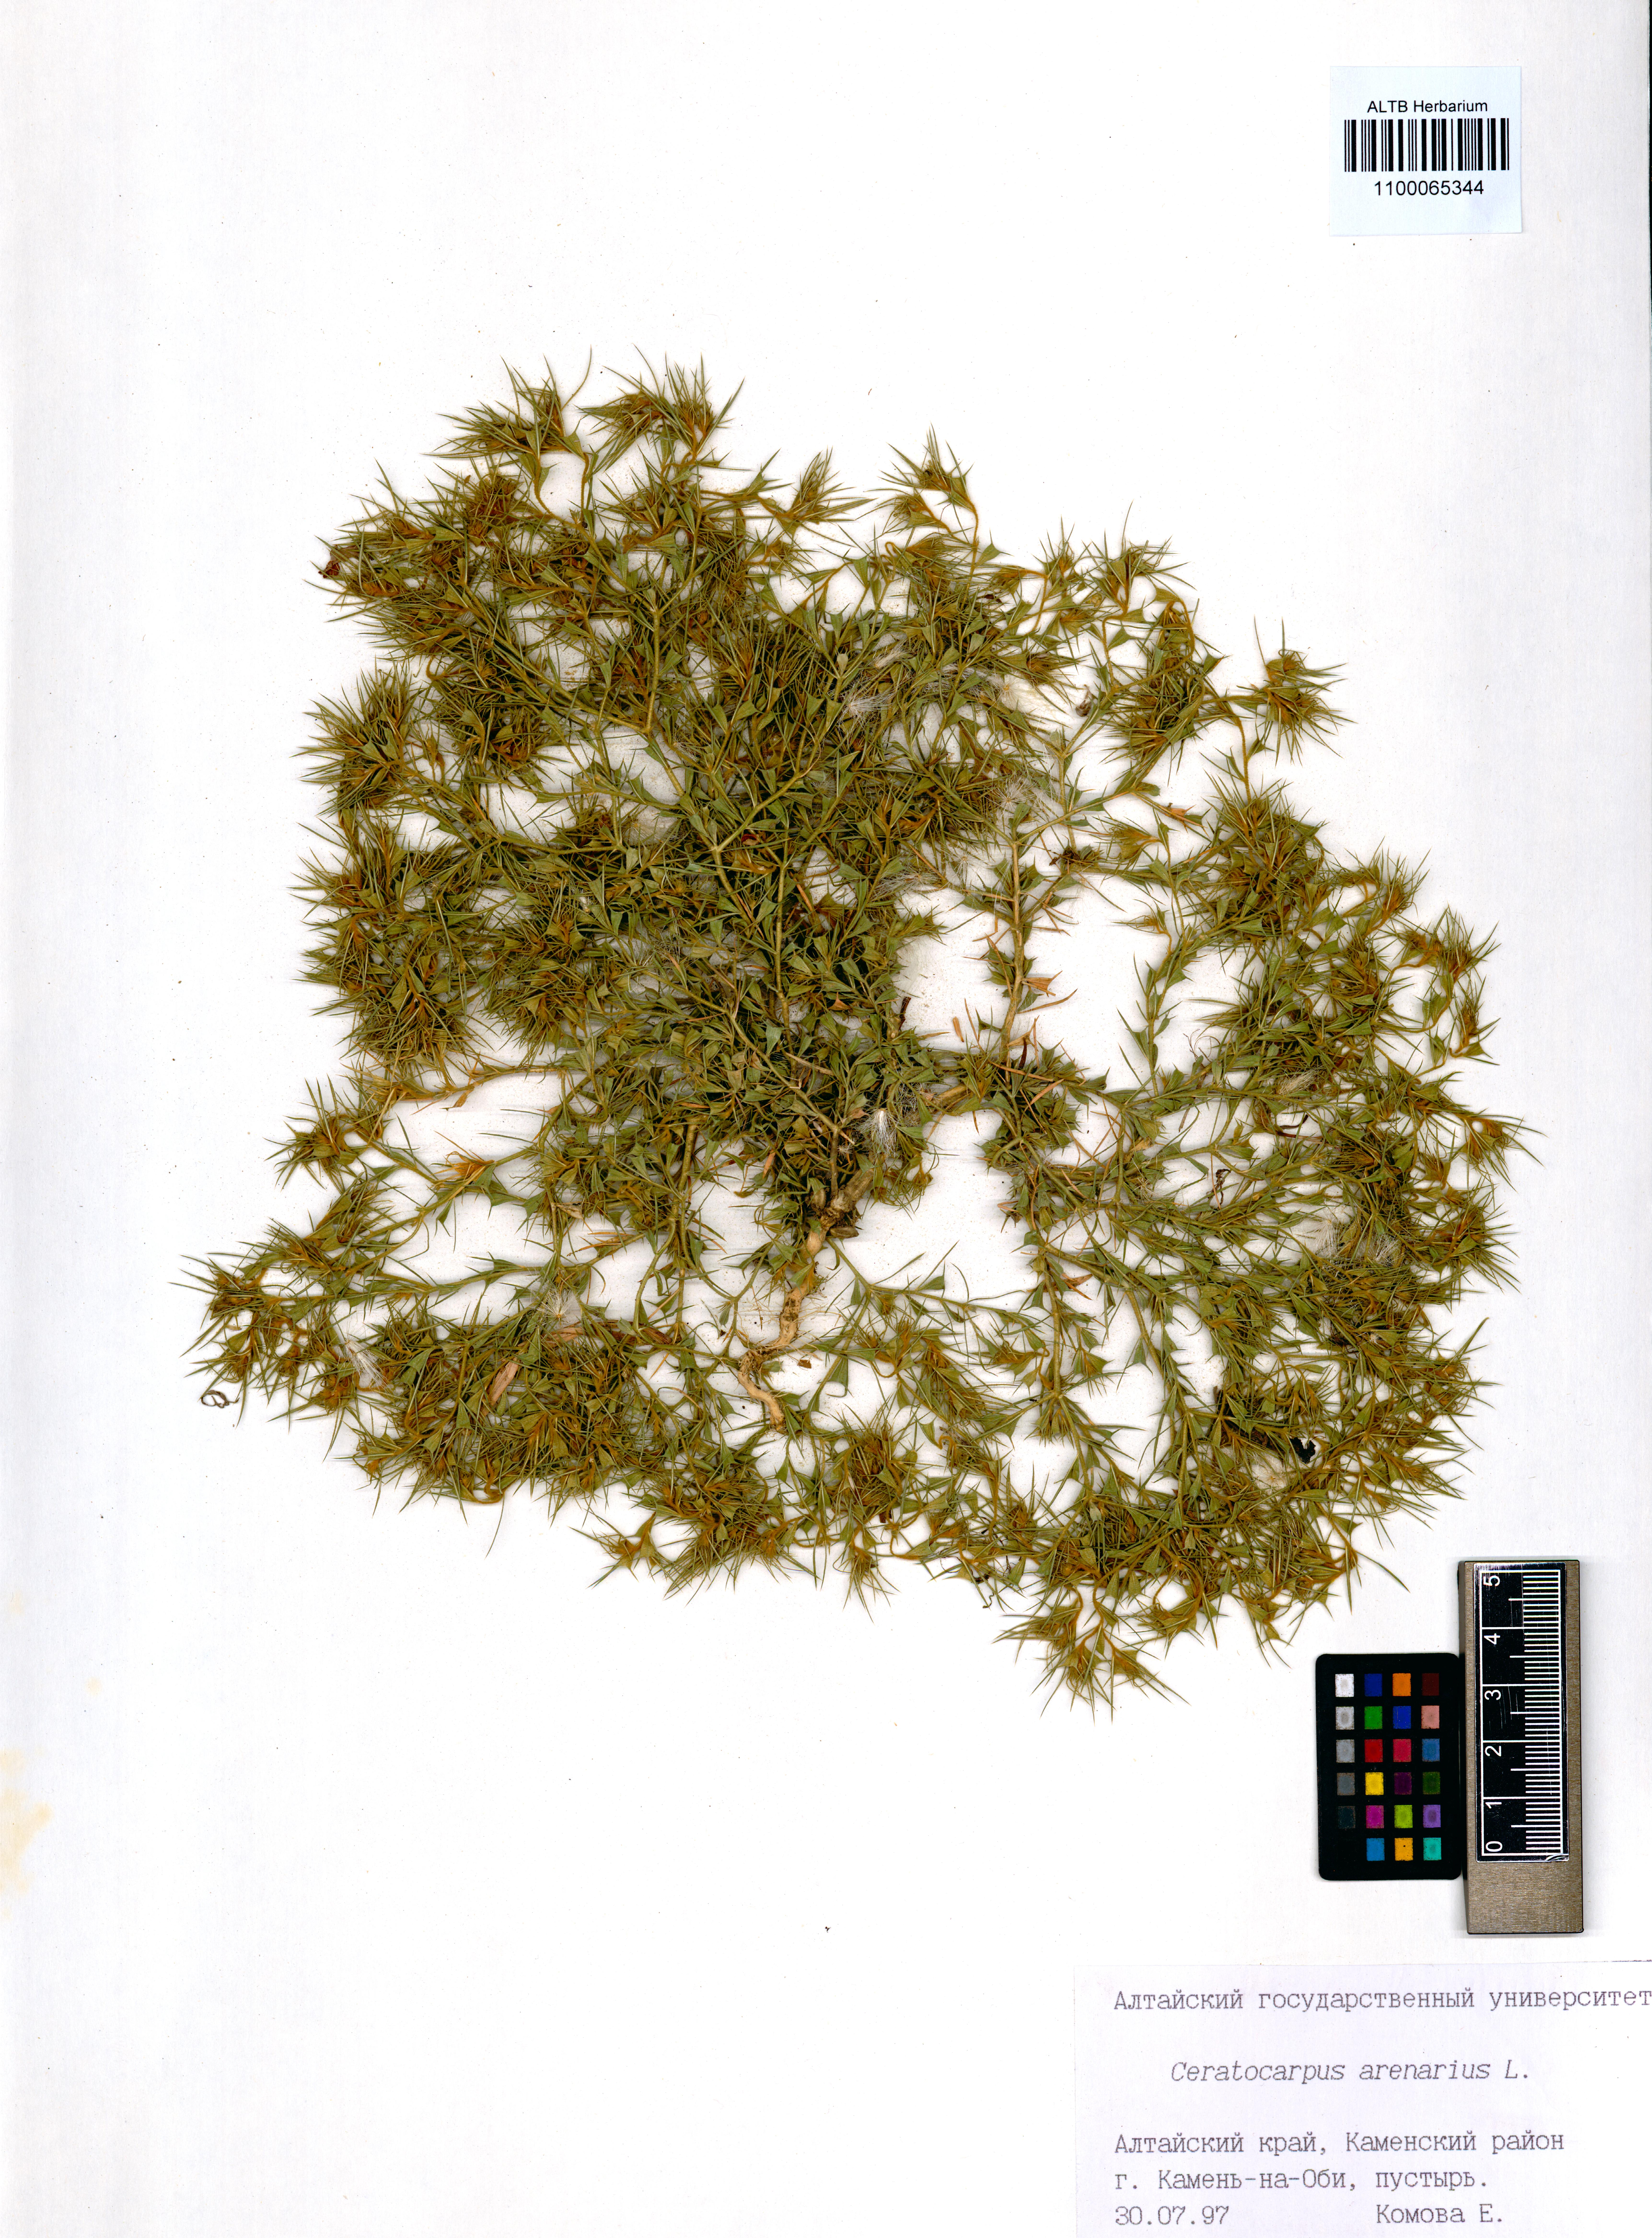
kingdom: Plantae
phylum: Tracheophyta
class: Magnoliopsida
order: Caryophyllales
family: Amaranthaceae
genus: Ceratocarpus
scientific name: Ceratocarpus arenarius
